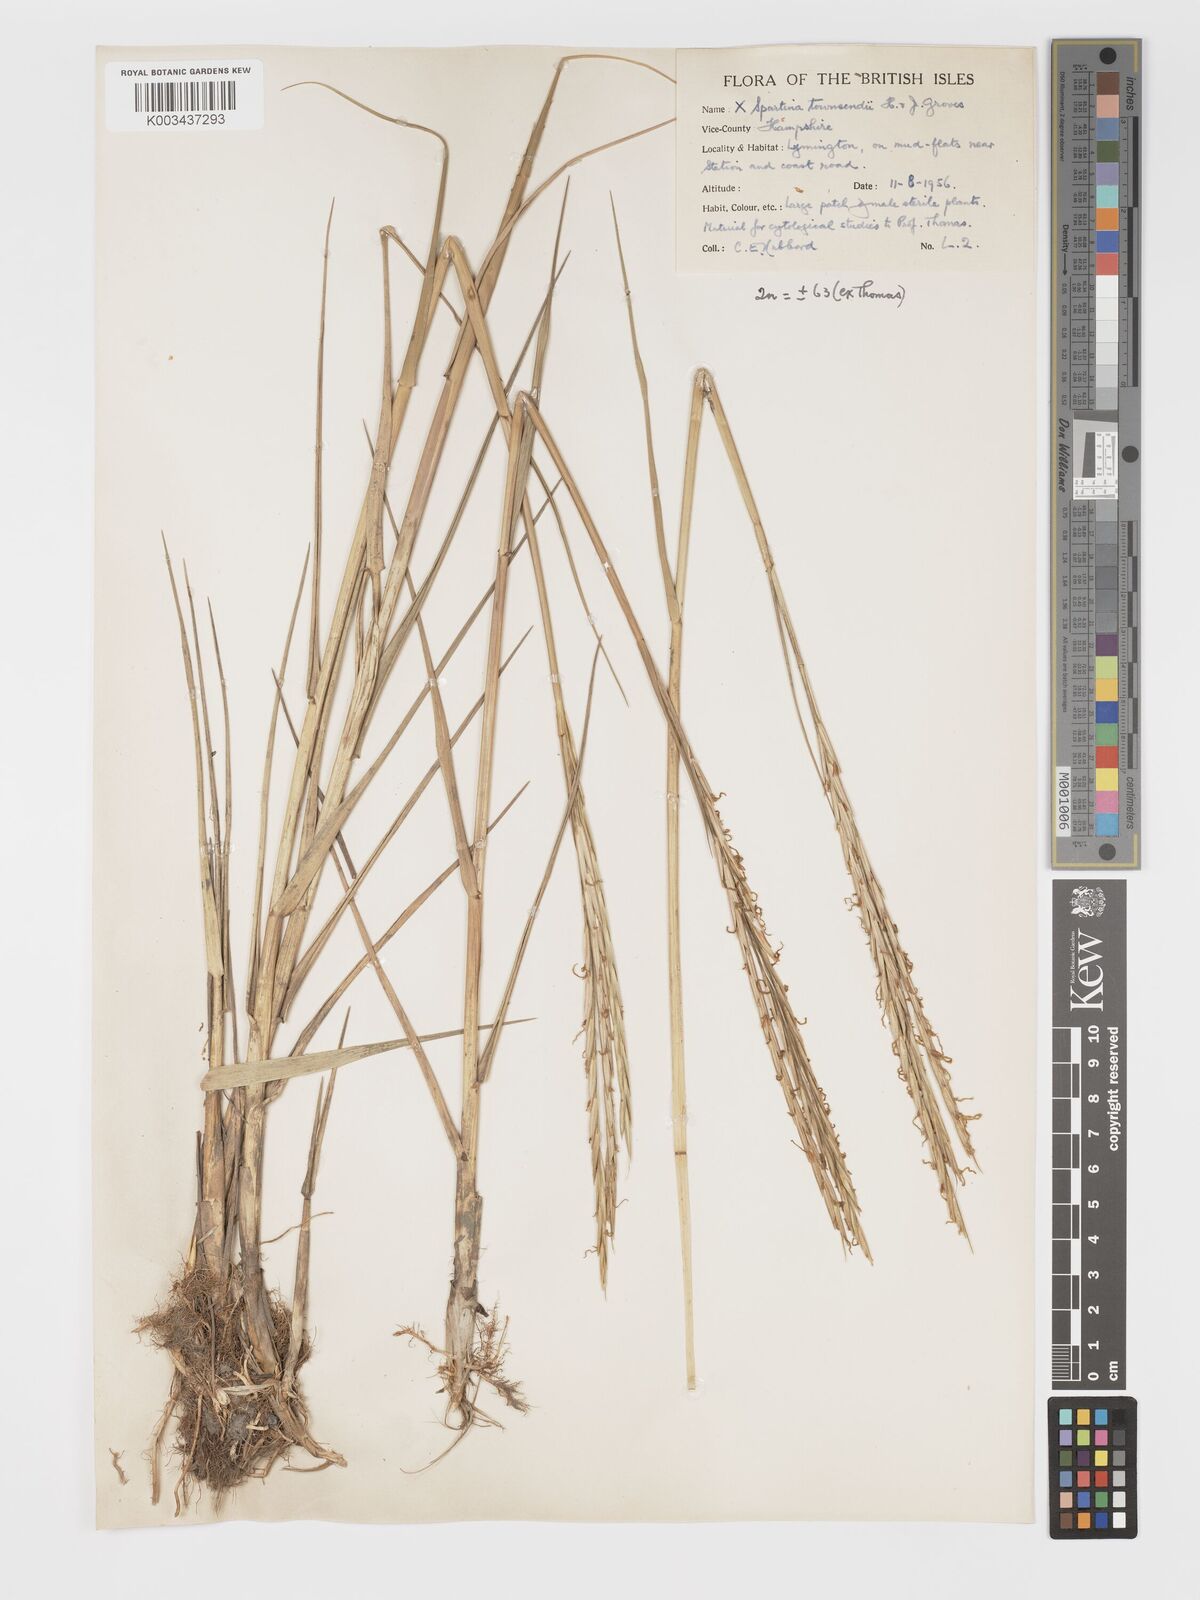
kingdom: Plantae
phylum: Tracheophyta
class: Liliopsida
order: Poales
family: Poaceae
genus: Sporobolus
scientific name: Sporobolus townsendii
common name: Townsend's cordgrass
